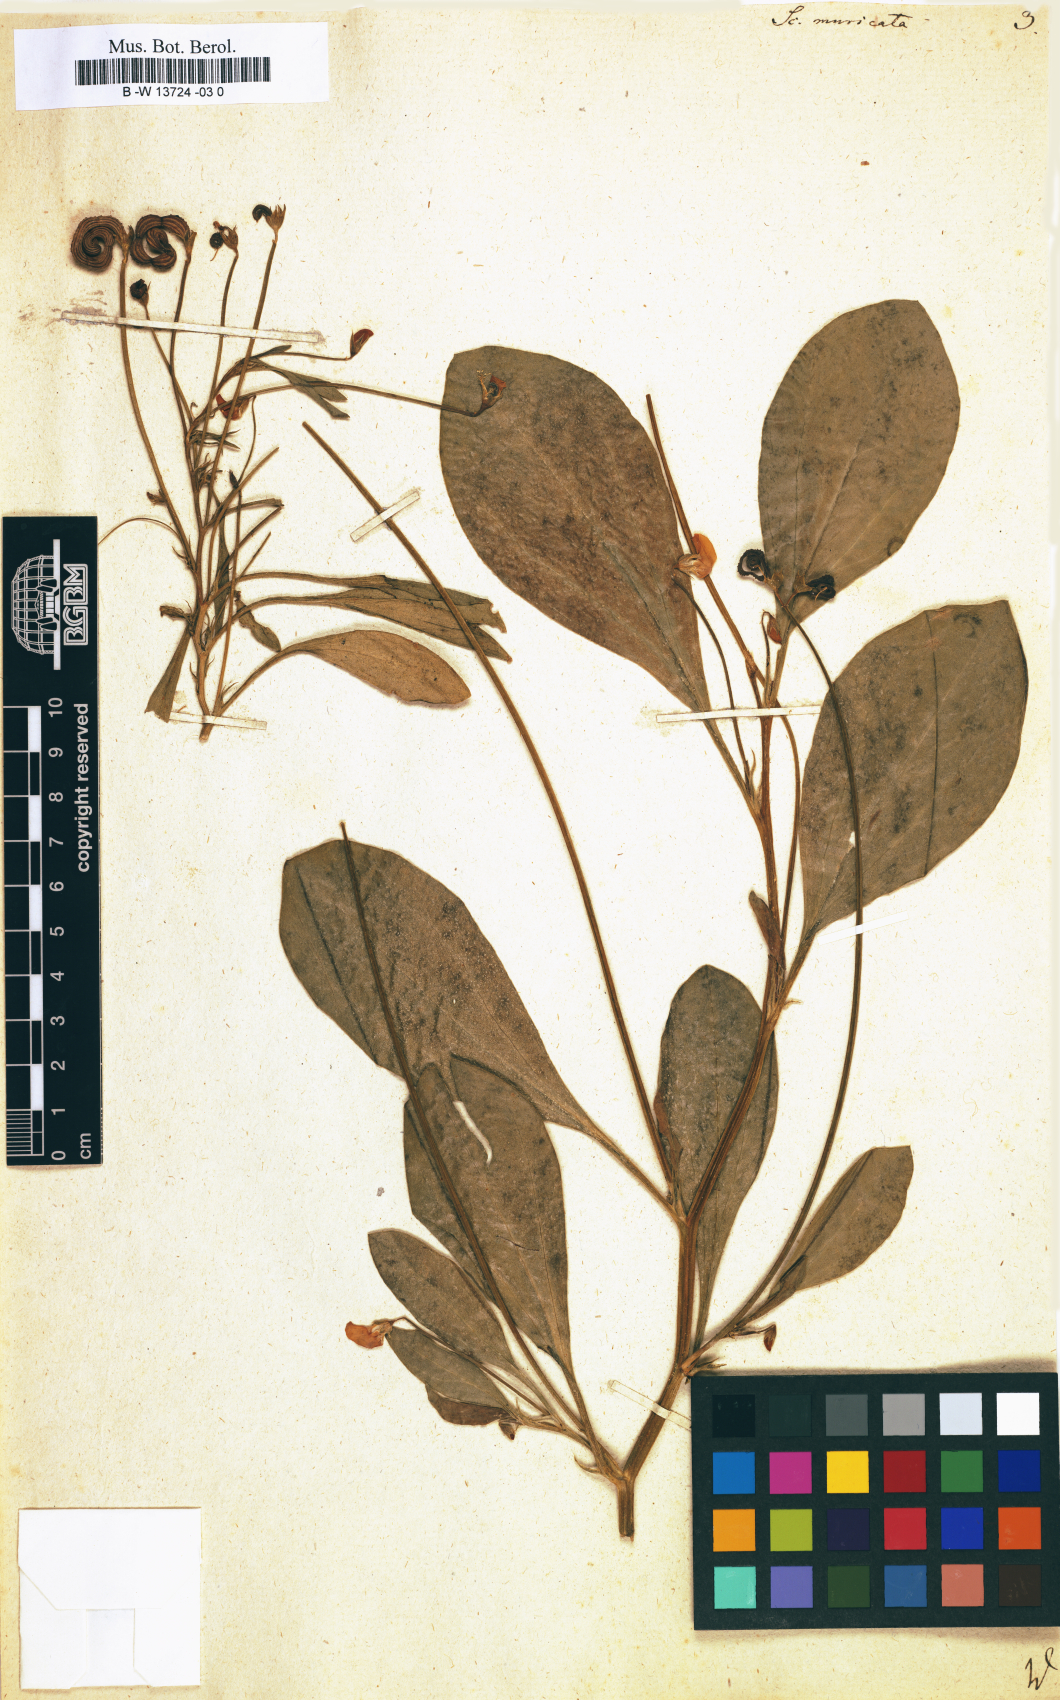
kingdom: Plantae
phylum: Tracheophyta
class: Magnoliopsida
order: Fabales
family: Fabaceae
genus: Scorpiurus
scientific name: Scorpiurus muricatus
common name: Caterpillar-plant
